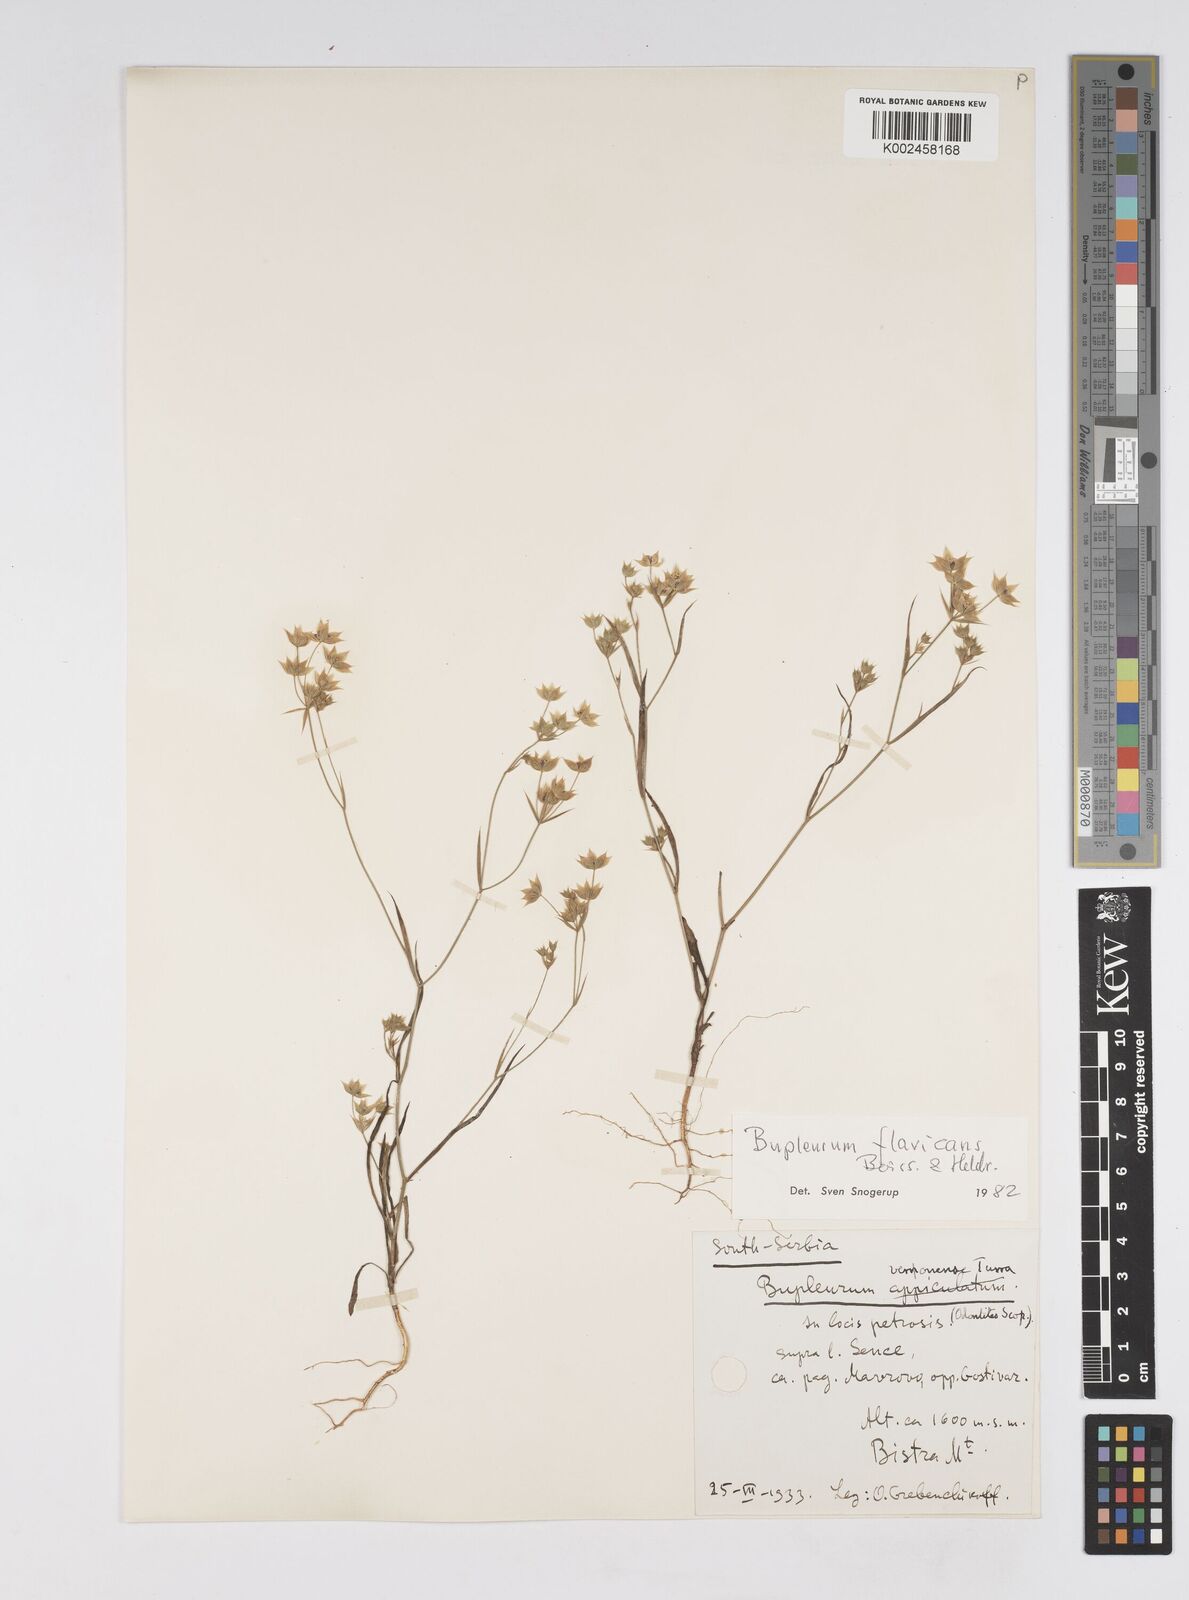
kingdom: Plantae
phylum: Tracheophyta
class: Magnoliopsida
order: Apiales
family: Apiaceae
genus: Bupleurum
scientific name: Bupleurum flavicans
